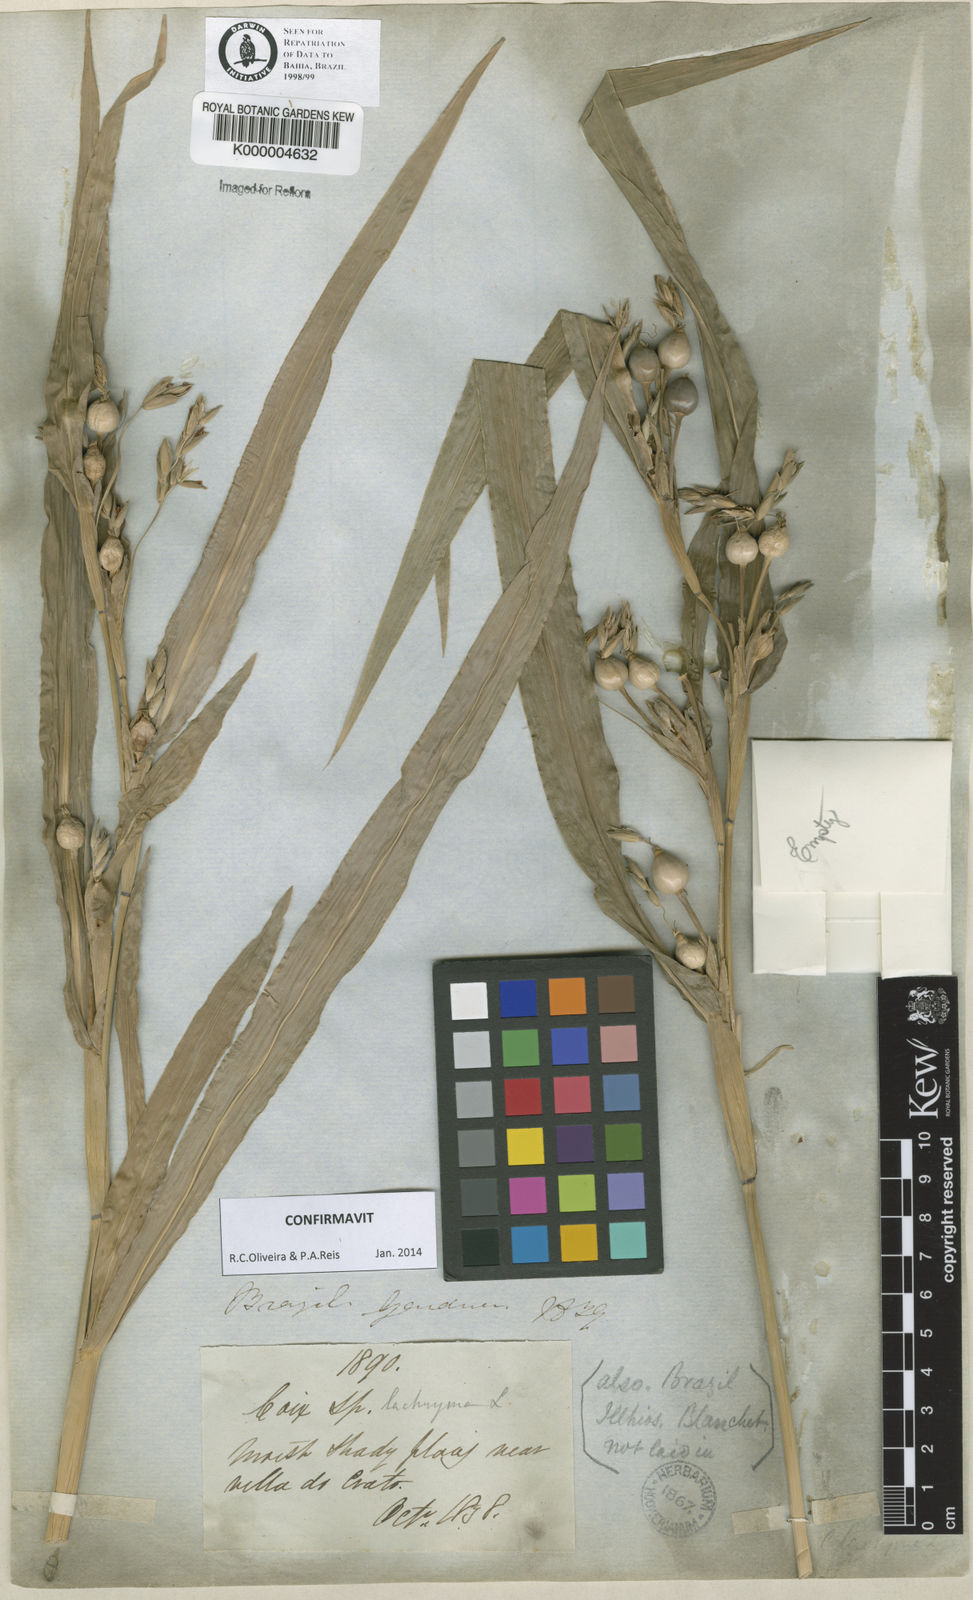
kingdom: Plantae
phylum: Tracheophyta
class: Liliopsida
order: Poales
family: Poaceae
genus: Coix
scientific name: Coix lacryma-jobi
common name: Job's tears
